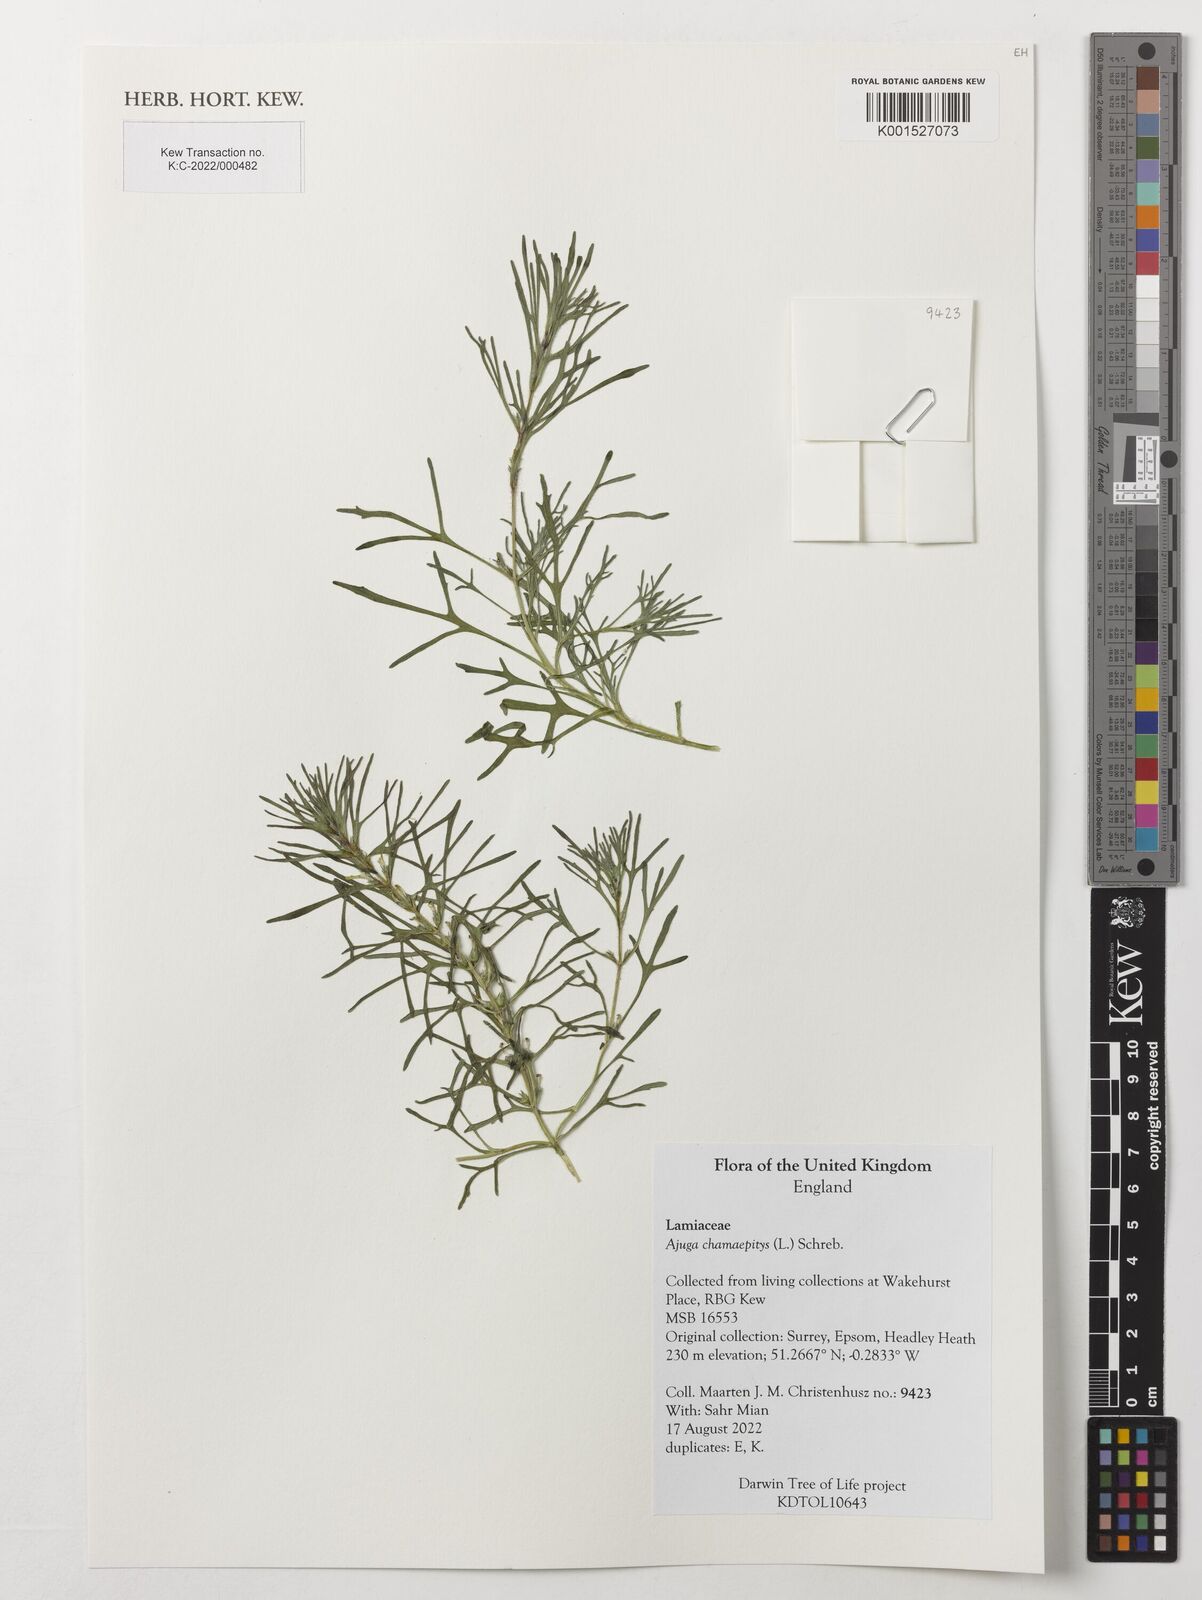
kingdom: Plantae
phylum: Tracheophyta
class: Magnoliopsida
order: Lamiales
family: Lamiaceae
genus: Ajuga
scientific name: Ajuga chamaepitys
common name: Ground-pine
